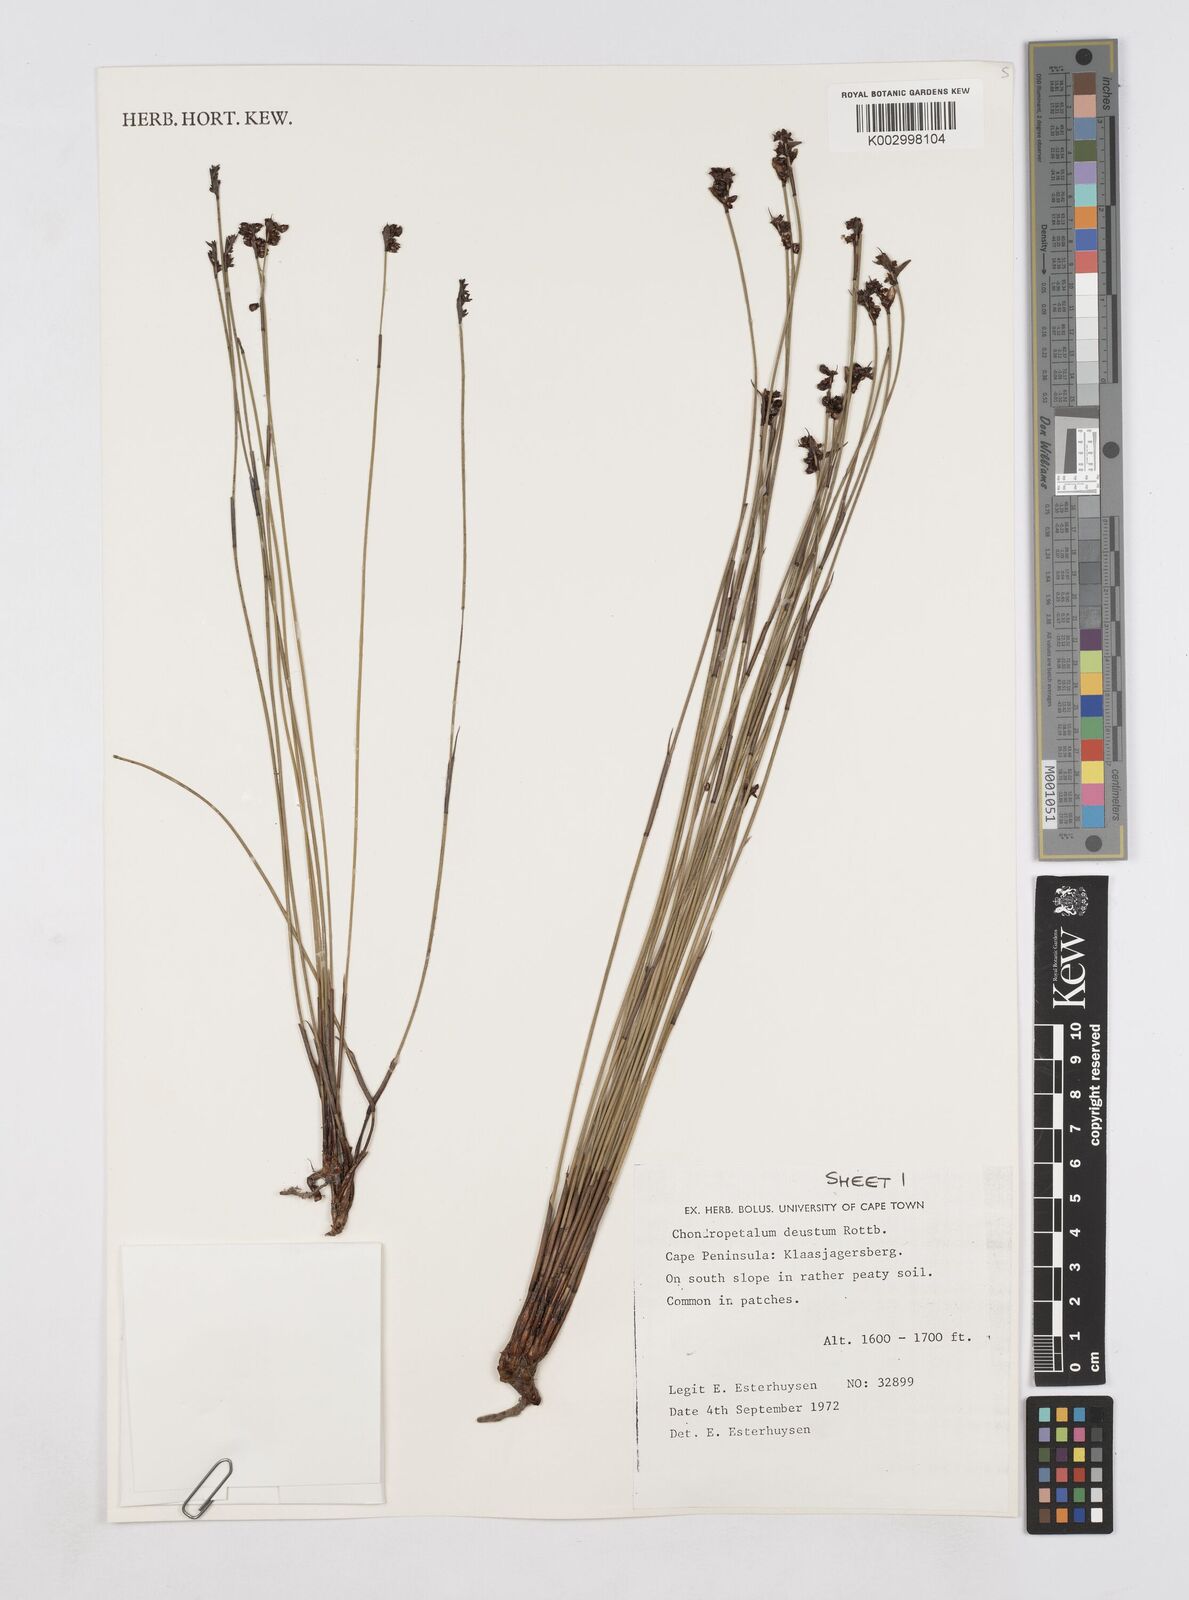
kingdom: Plantae
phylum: Tracheophyta
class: Liliopsida
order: Poales
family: Restionaceae
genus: Elegia
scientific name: Elegia deusta
